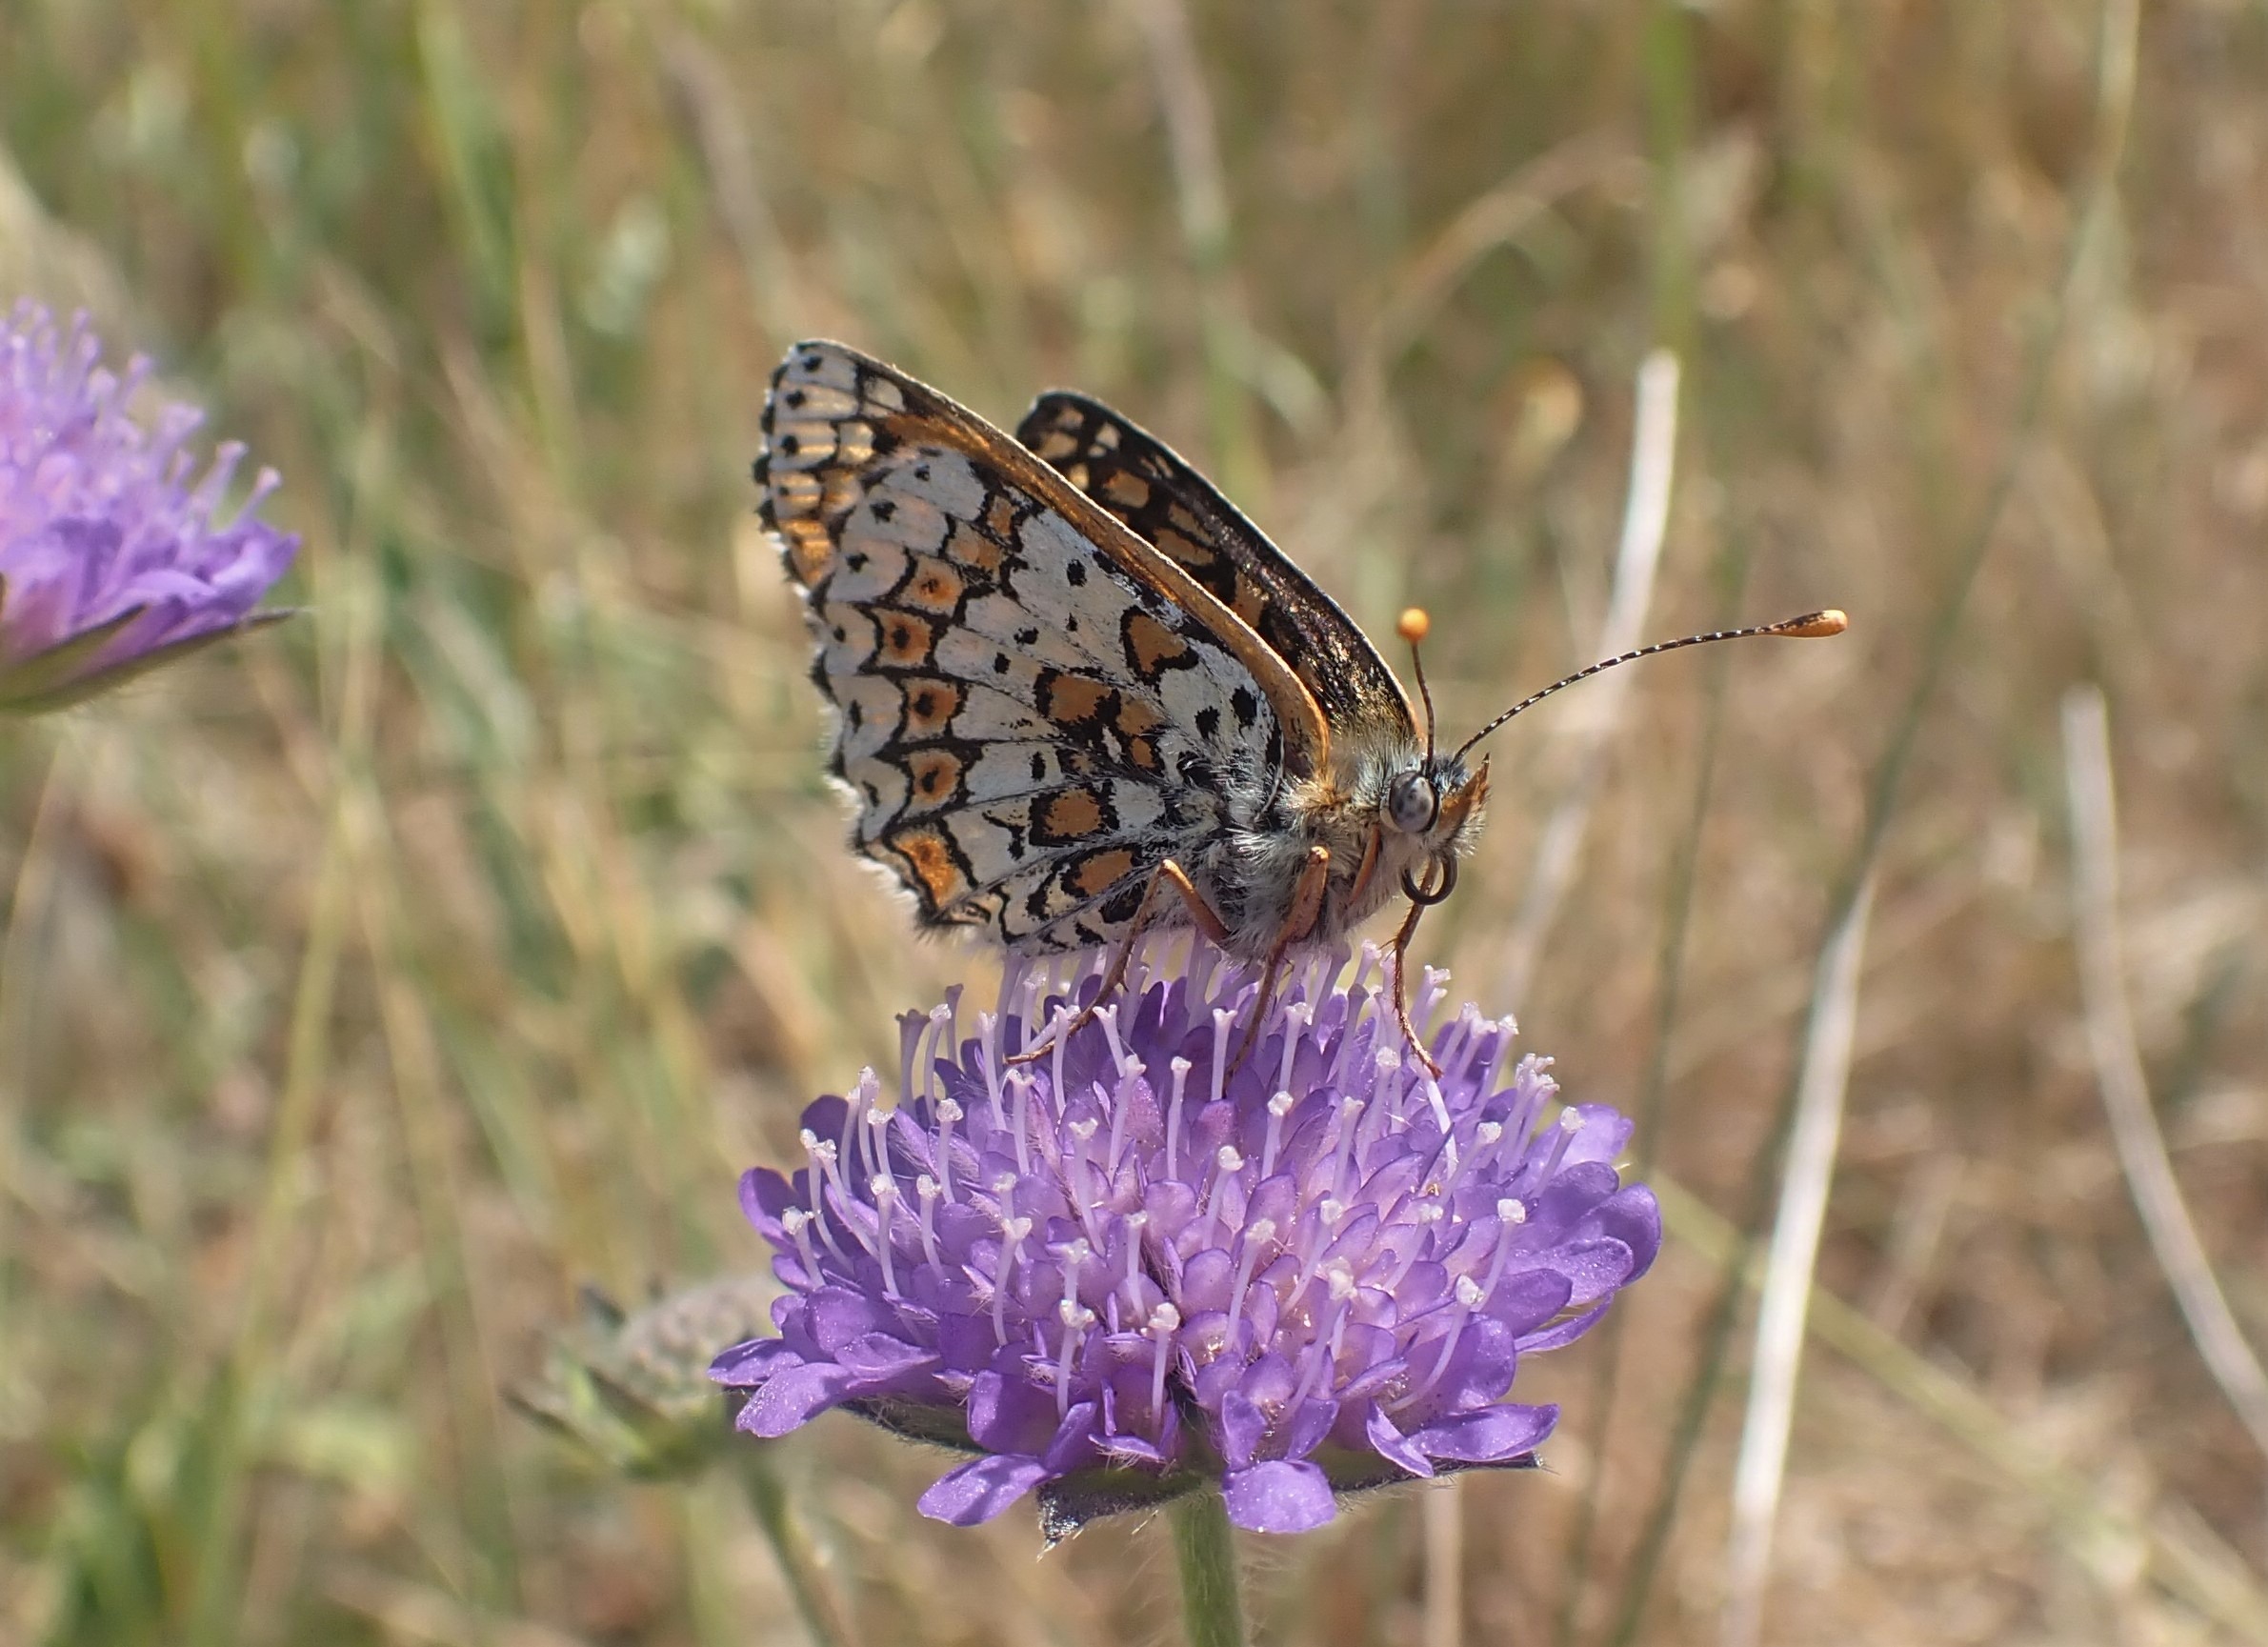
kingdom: Animalia
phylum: Arthropoda
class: Insecta
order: Lepidoptera
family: Nymphalidae
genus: Melitaea
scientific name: Melitaea cinxia
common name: Okkergul pletvinge
